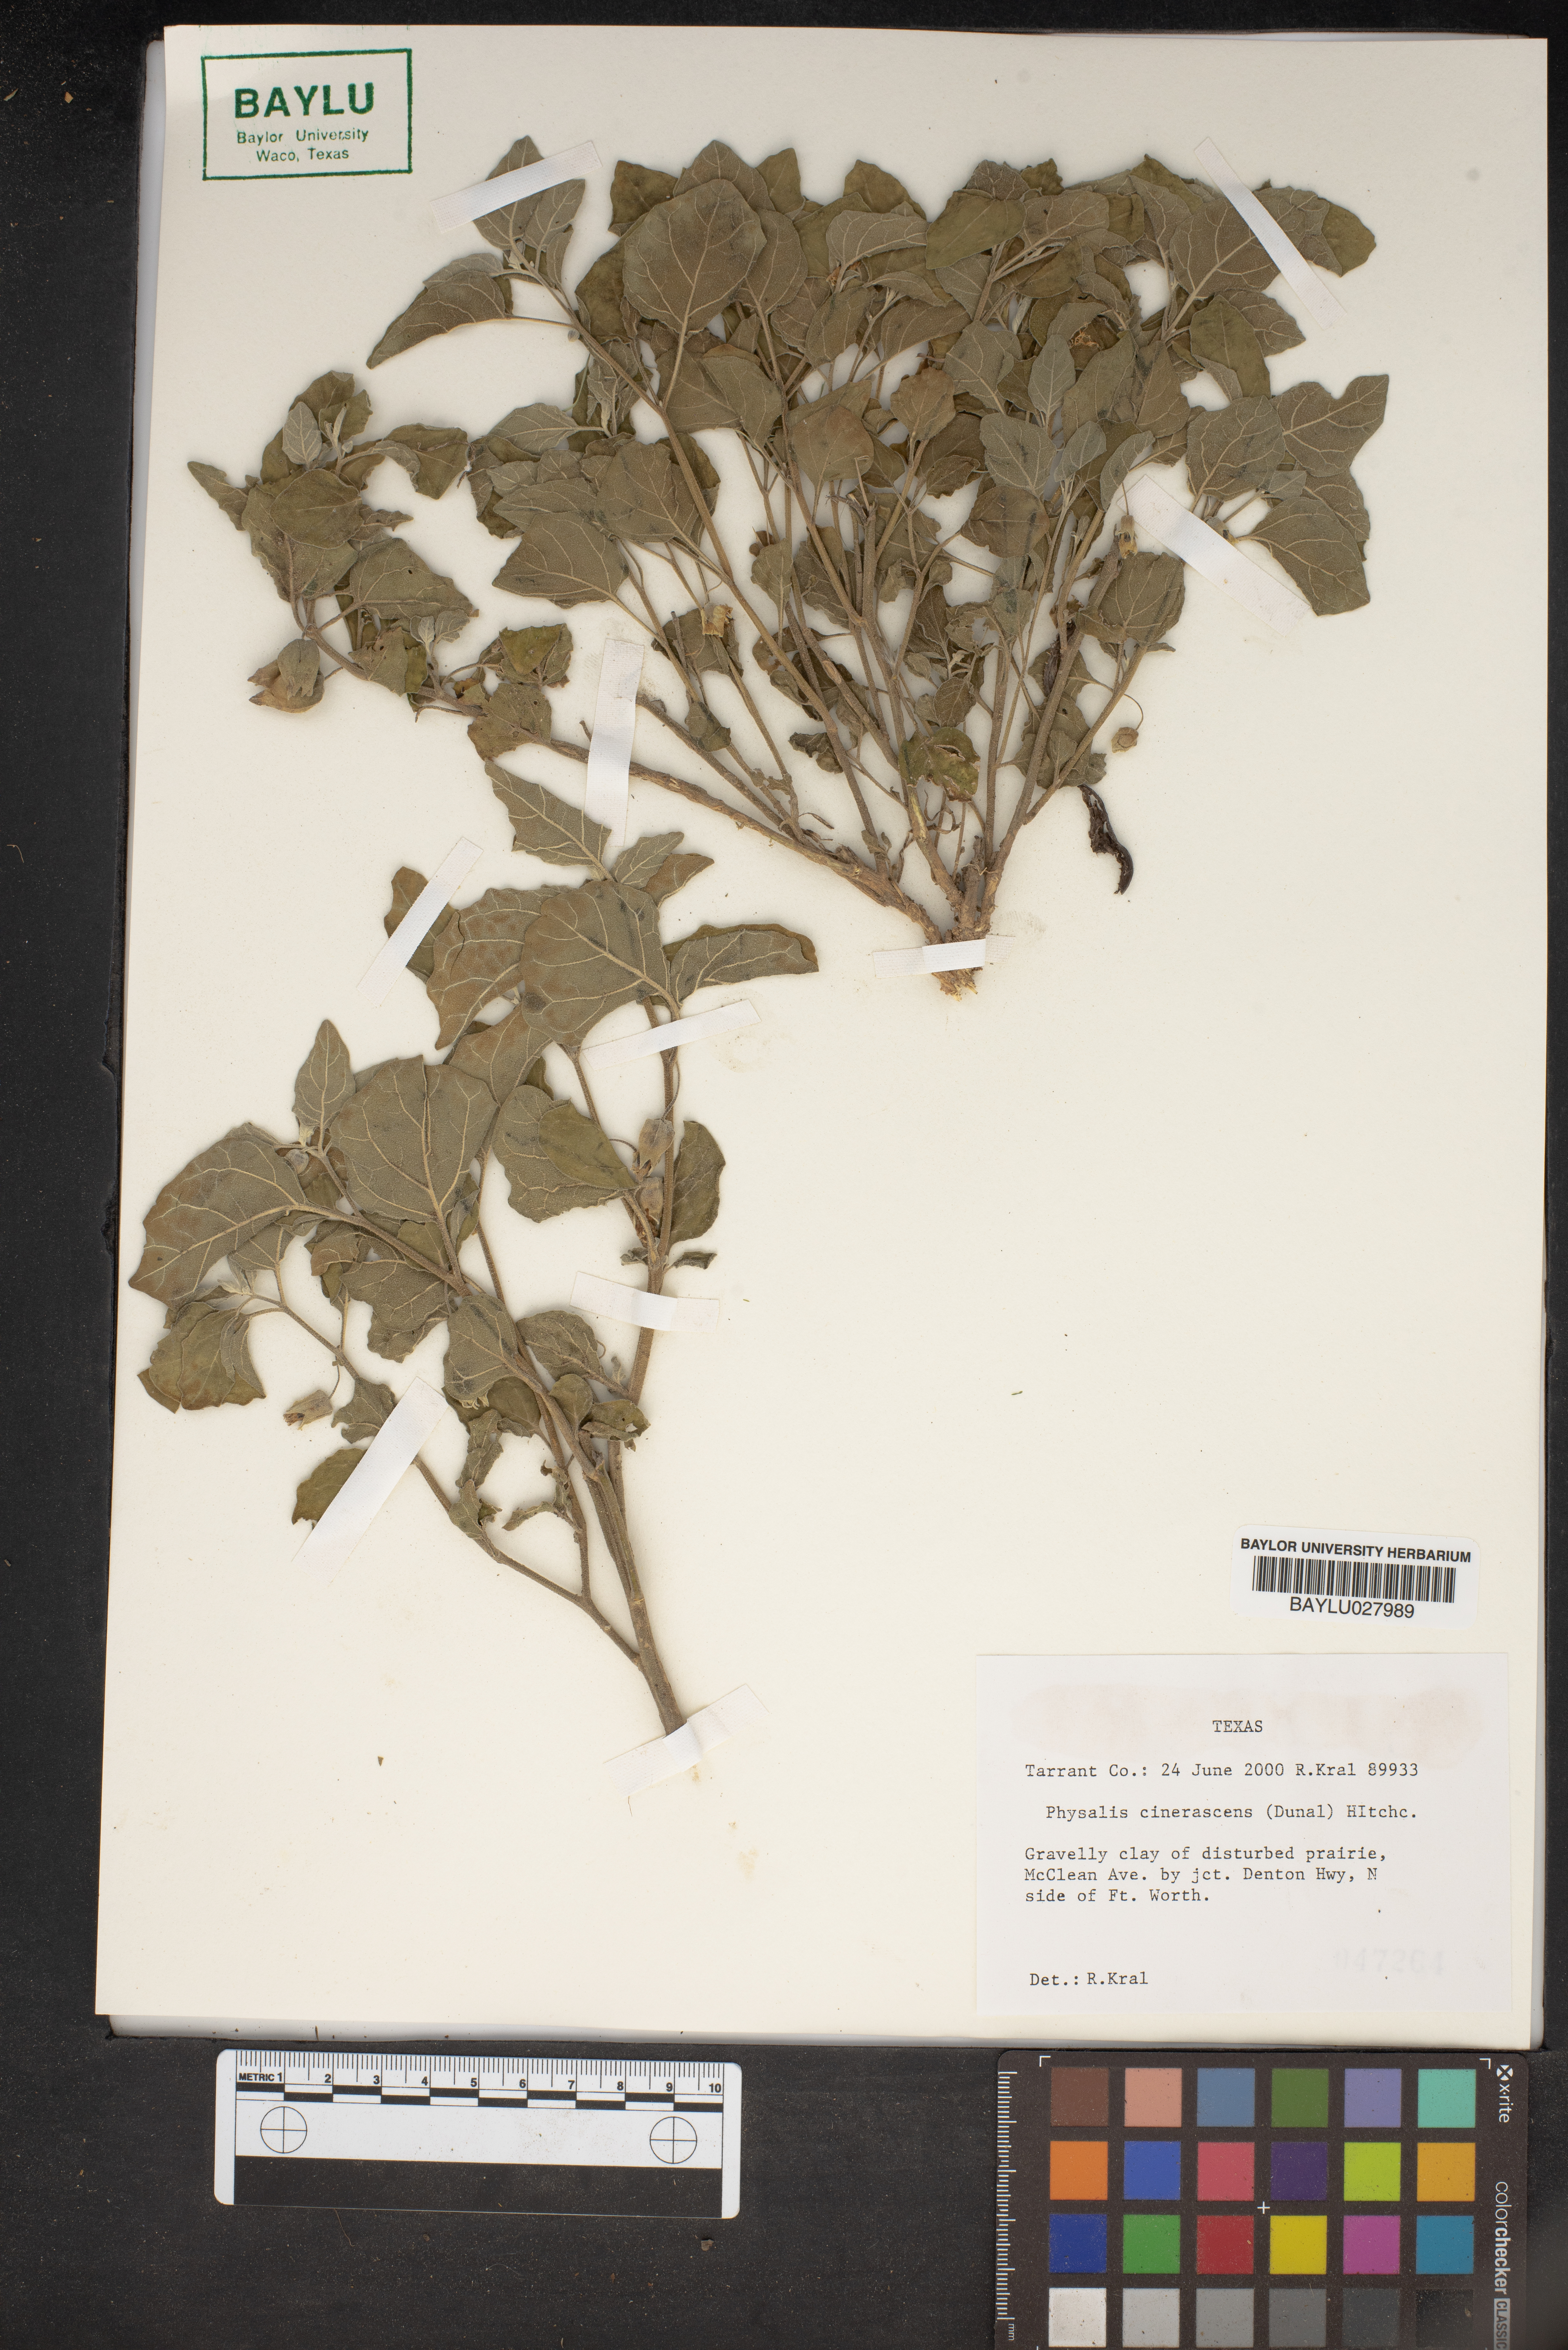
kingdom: Plantae
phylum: Tracheophyta
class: Magnoliopsida
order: Solanales
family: Solanaceae
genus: Physalis
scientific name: Physalis cinerascens
